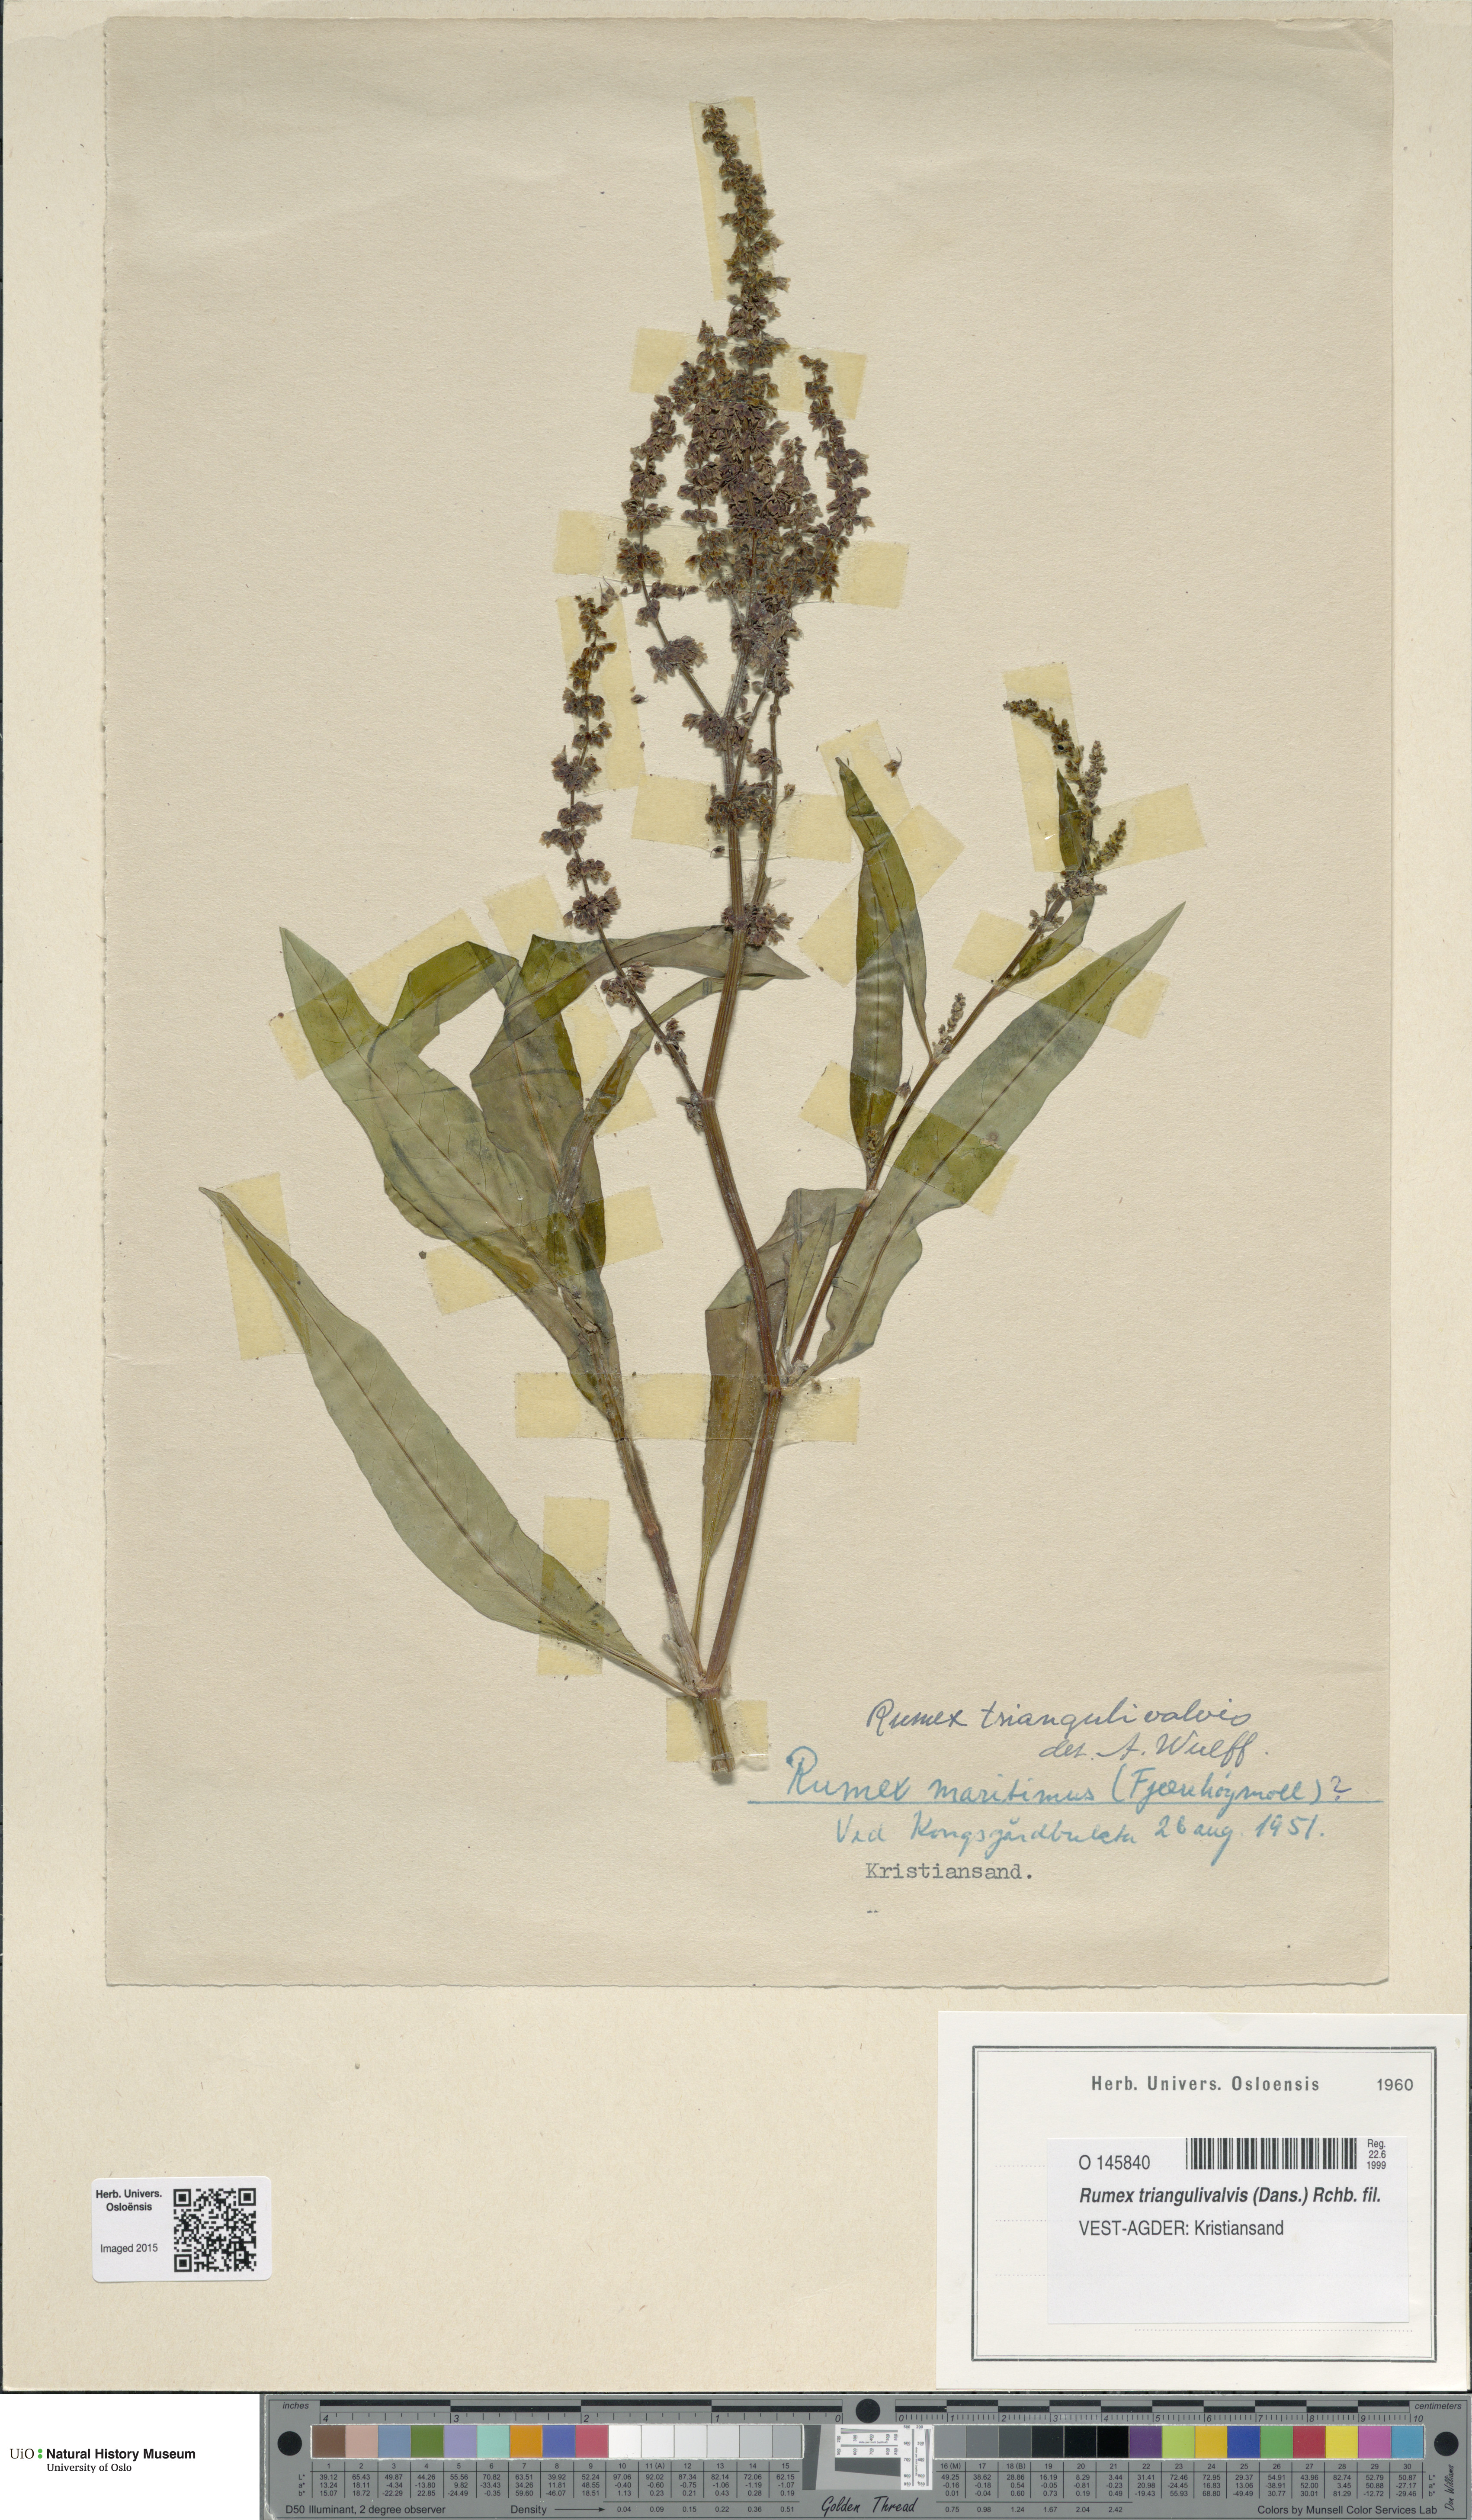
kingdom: Plantae
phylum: Tracheophyta
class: Magnoliopsida
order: Caryophyllales
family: Polygonaceae
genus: Rumex
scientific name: Rumex triangulivalvis
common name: Triangular-valve dock
